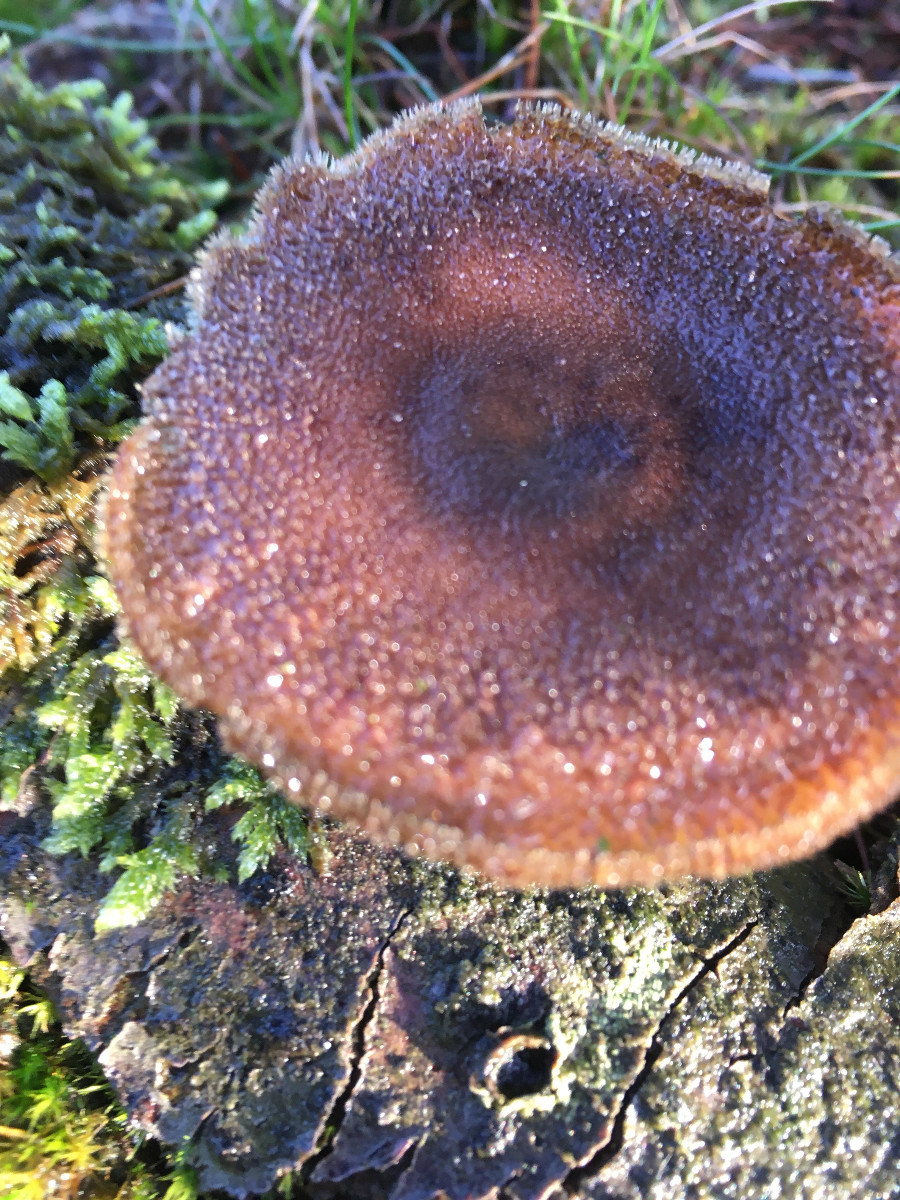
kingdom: Fungi
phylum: Basidiomycota
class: Agaricomycetes
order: Polyporales
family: Polyporaceae
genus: Lentinus
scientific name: Lentinus brumalis
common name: vinter-stilkporesvamp
